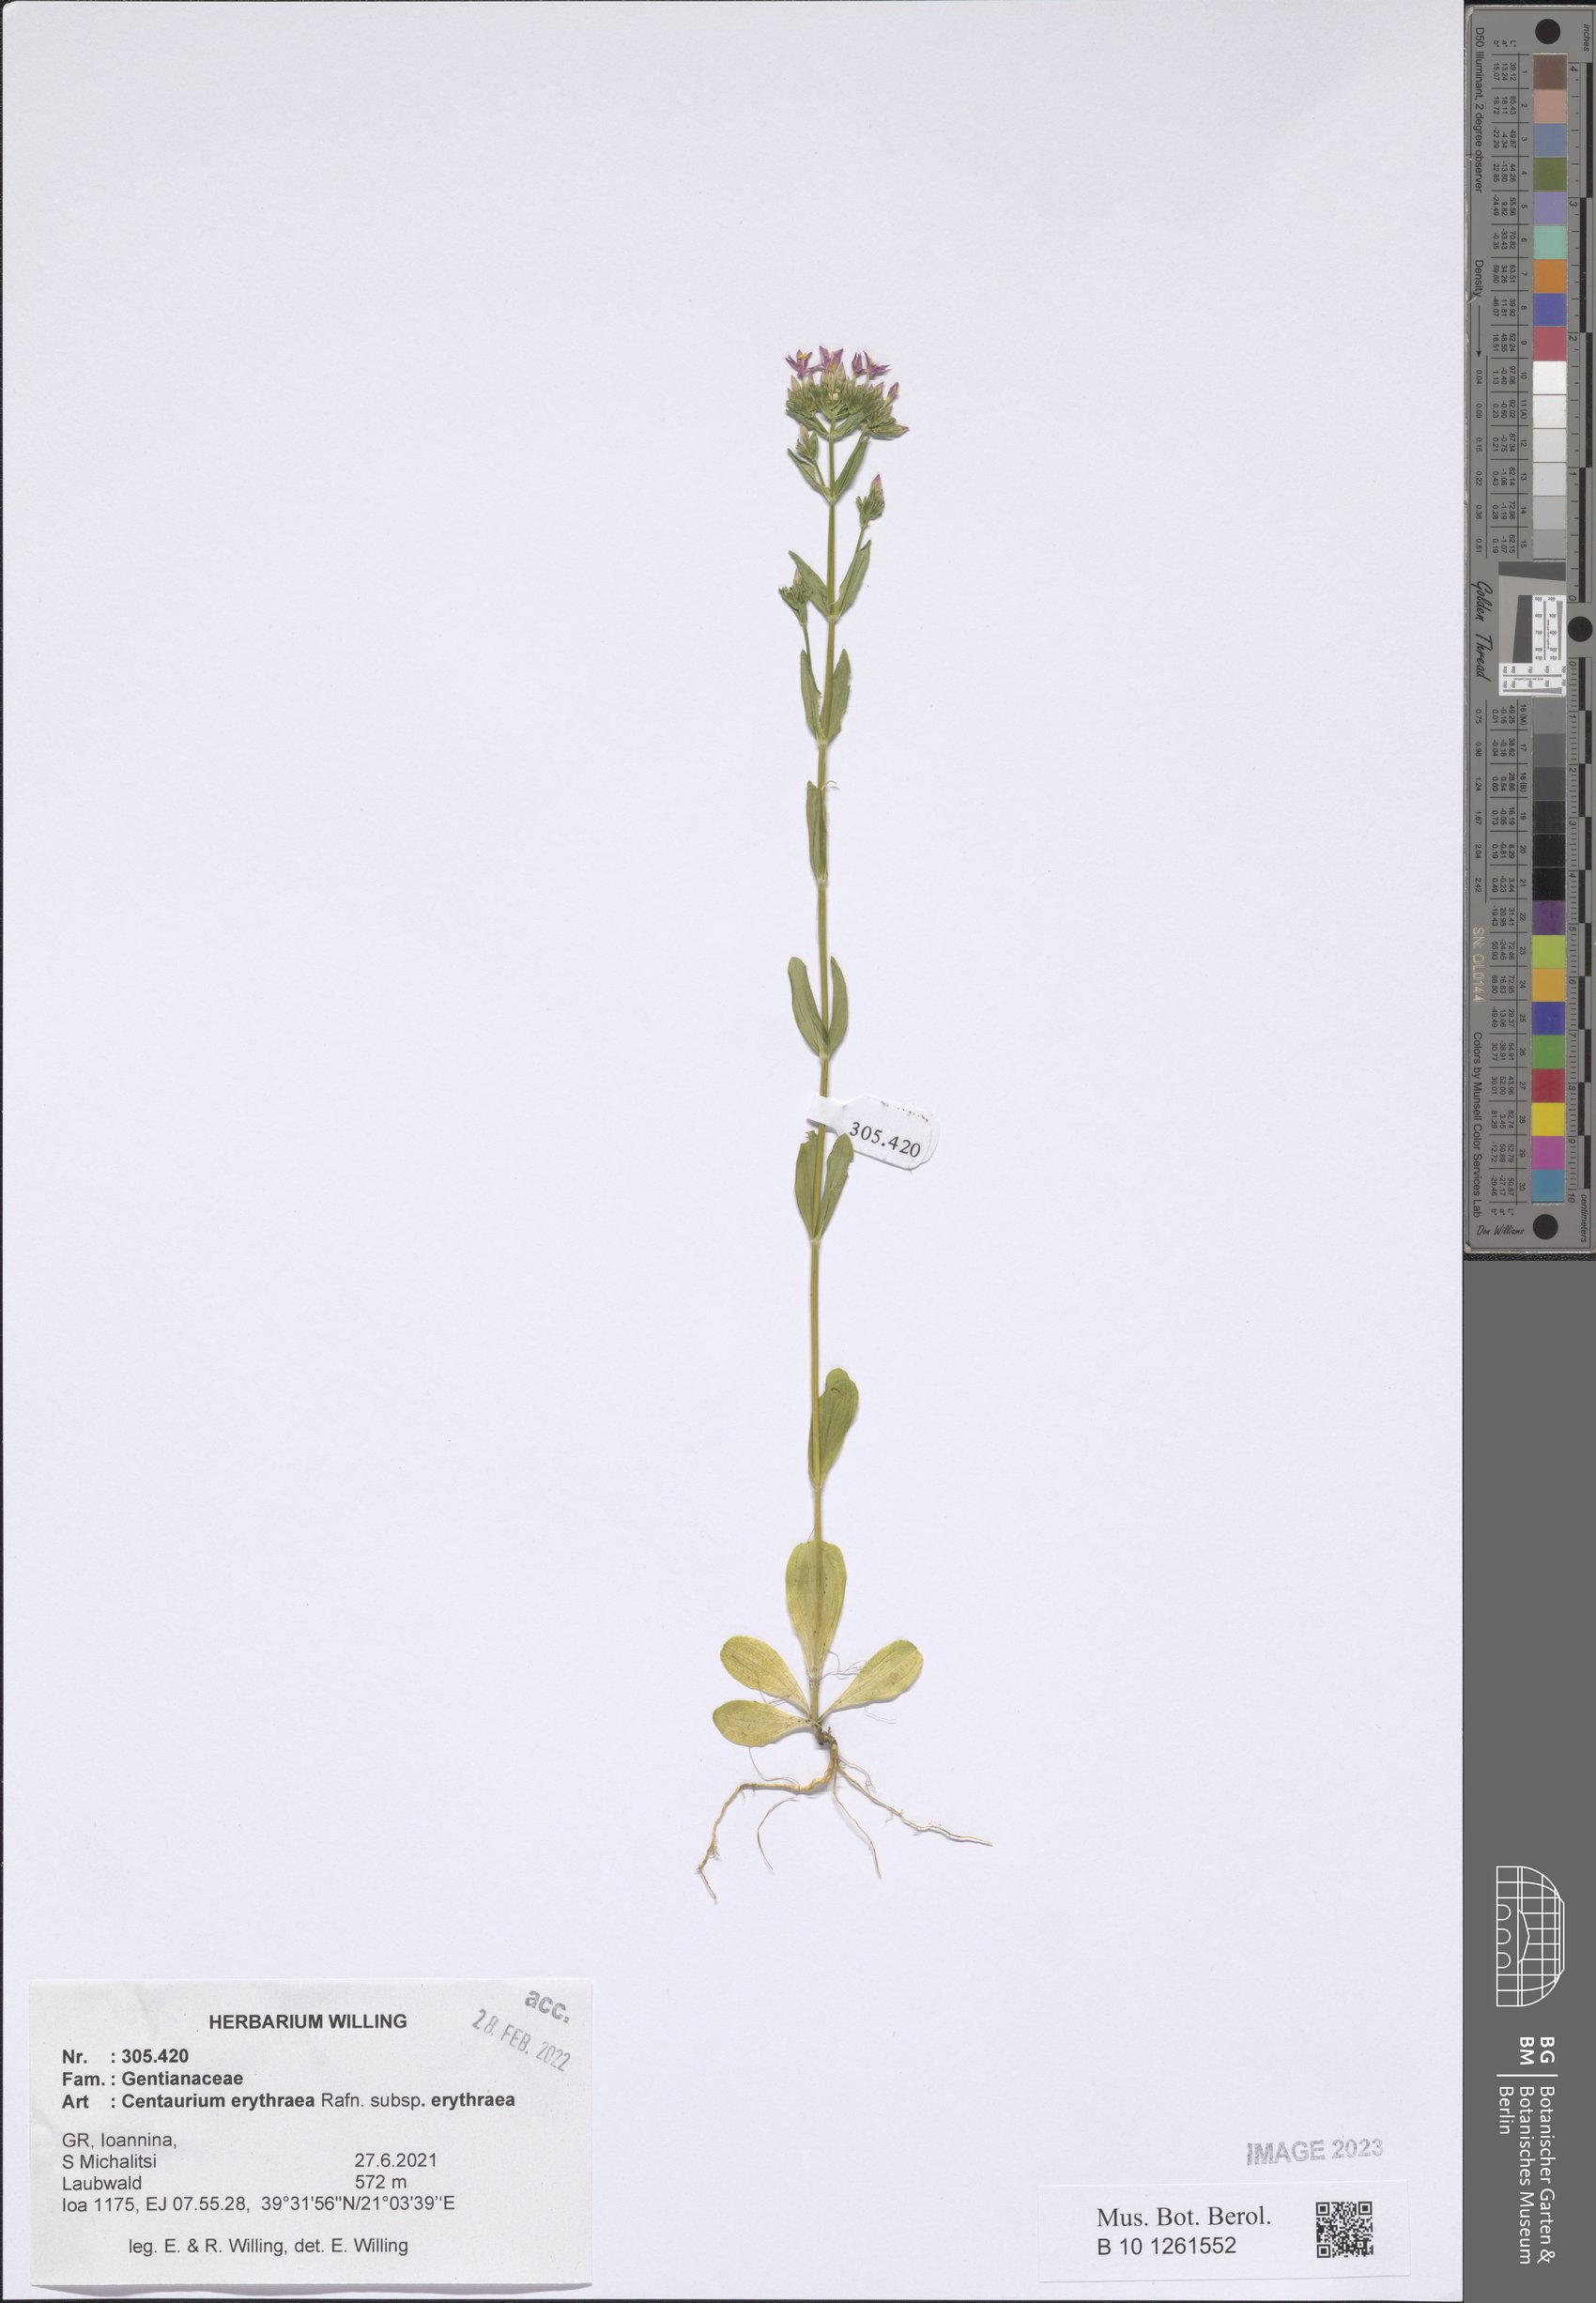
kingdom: Plantae
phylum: Tracheophyta
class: Magnoliopsida
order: Gentianales
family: Gentianaceae
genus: Centaurium
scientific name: Centaurium erythraea
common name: Common centaury
